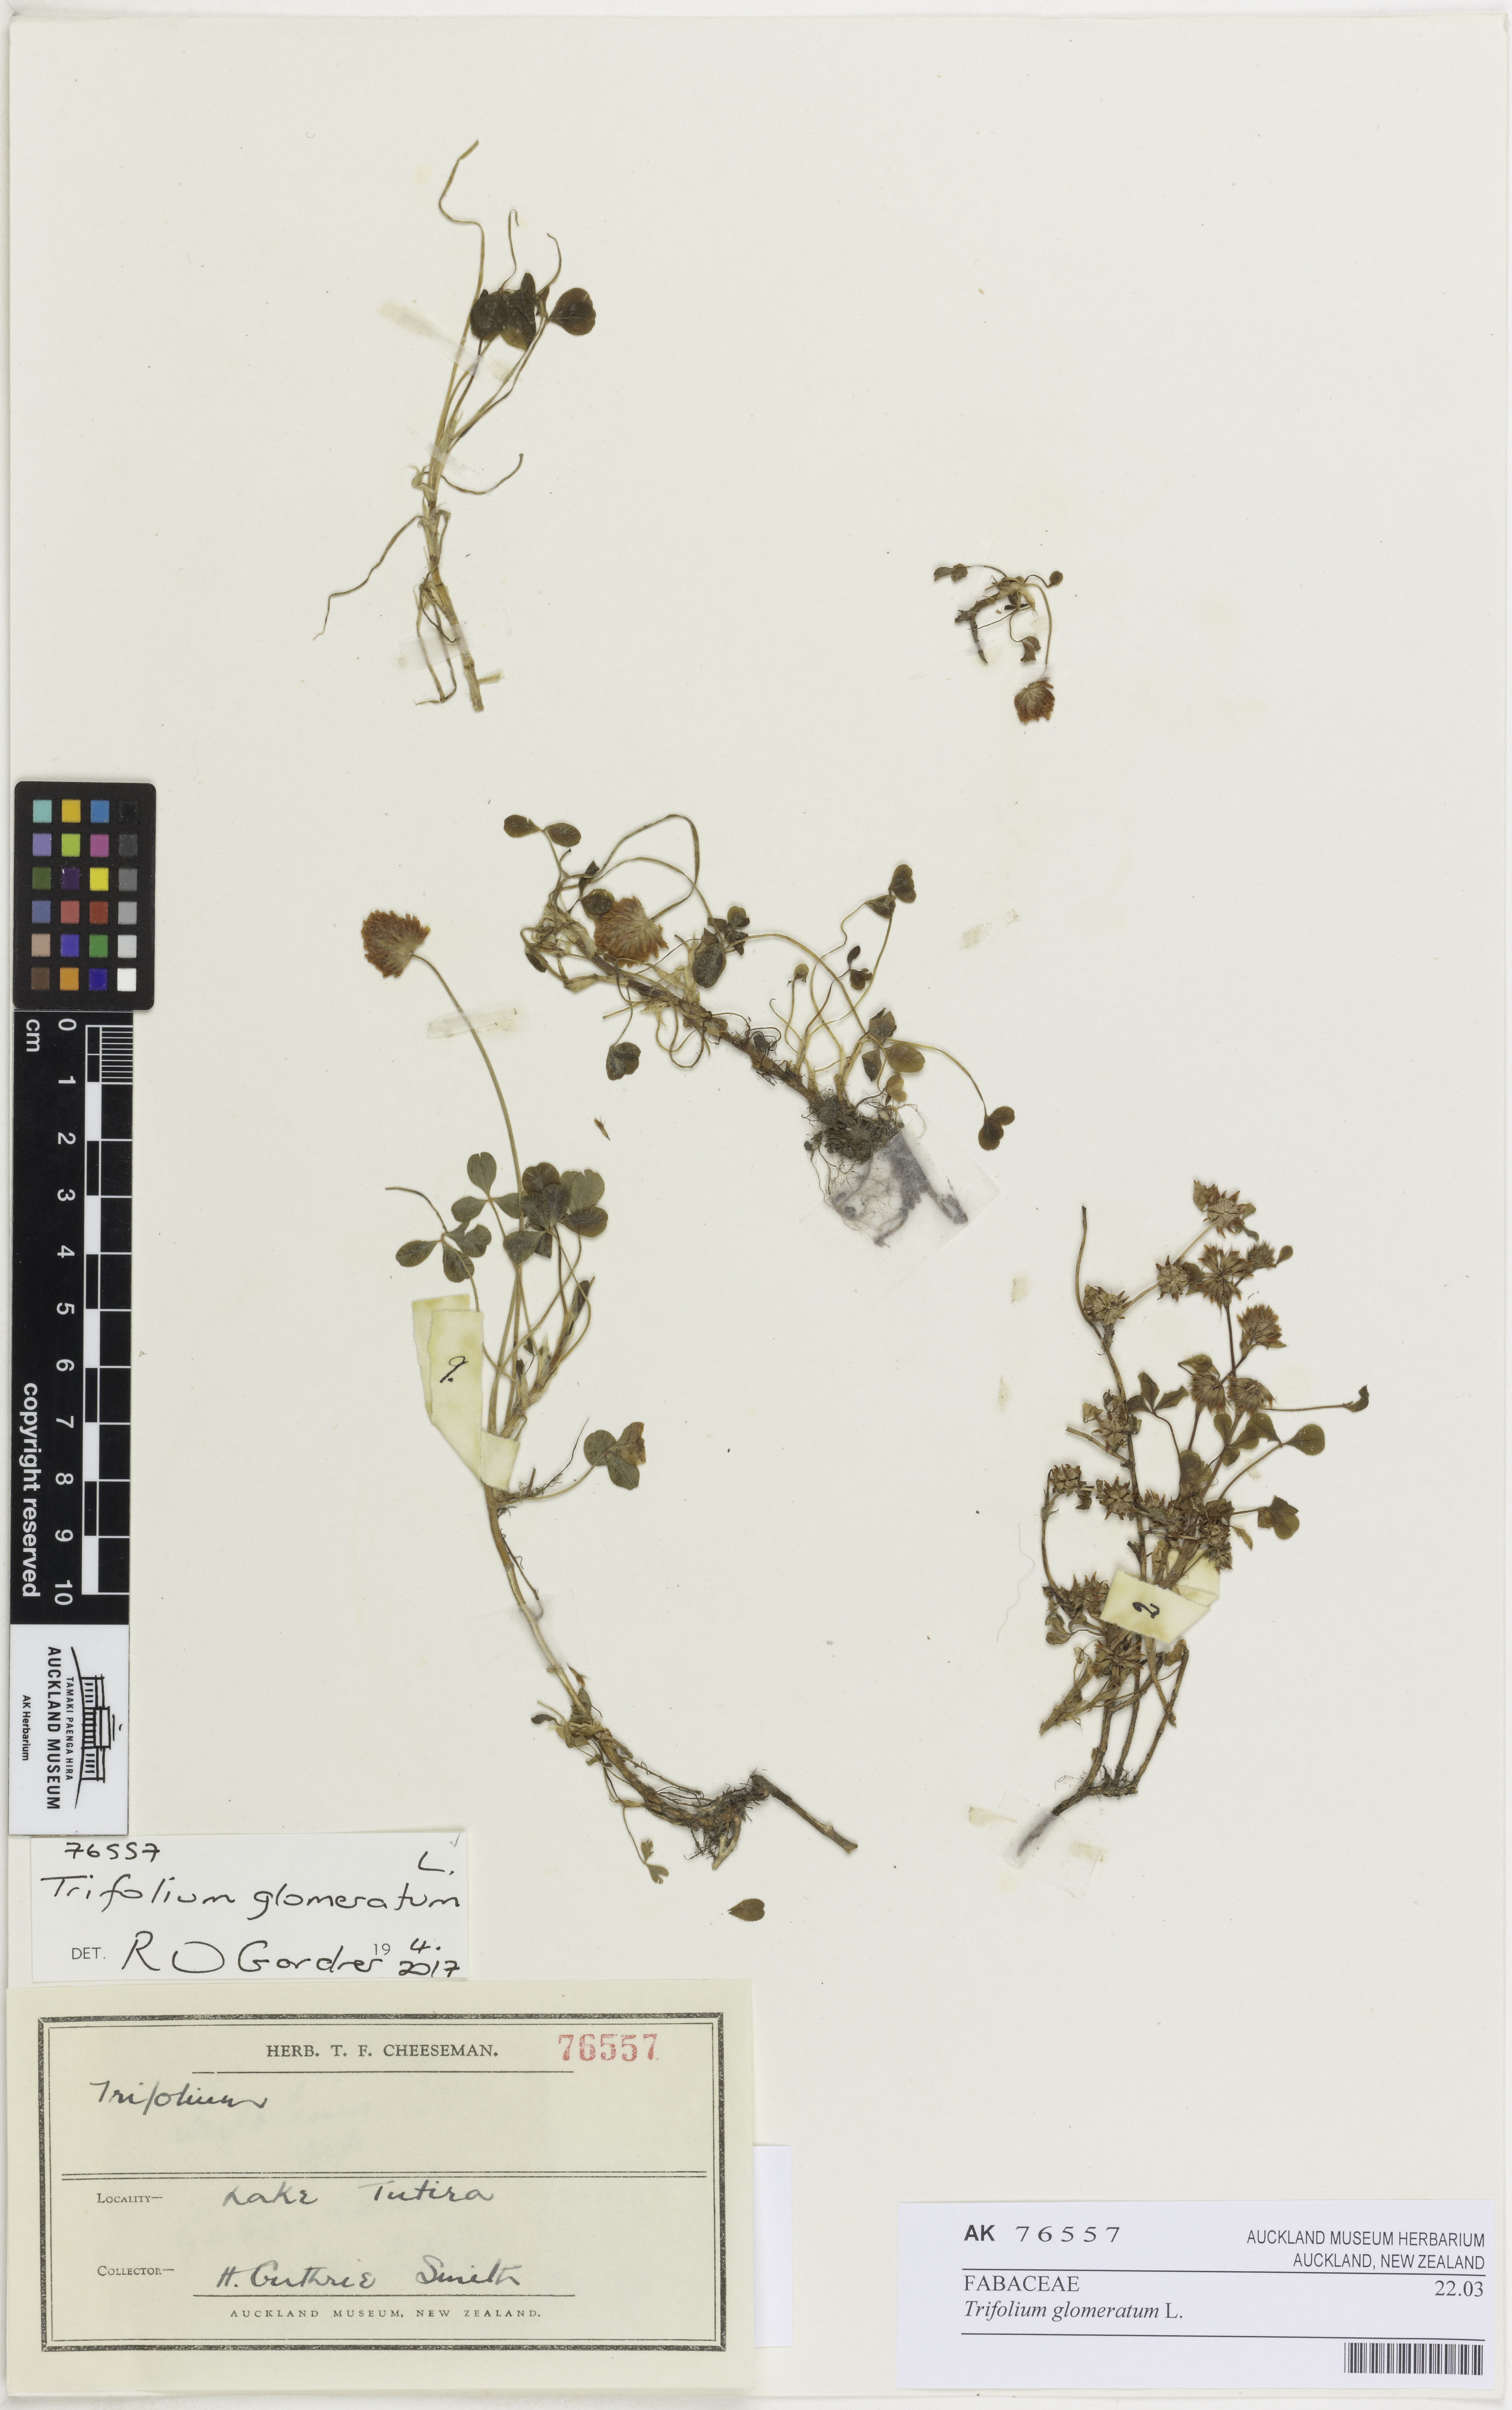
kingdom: Plantae
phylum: Tracheophyta
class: Magnoliopsida
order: Fabales
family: Fabaceae
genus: Trifolium
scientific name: Trifolium glomeratum
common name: Clustered clover
